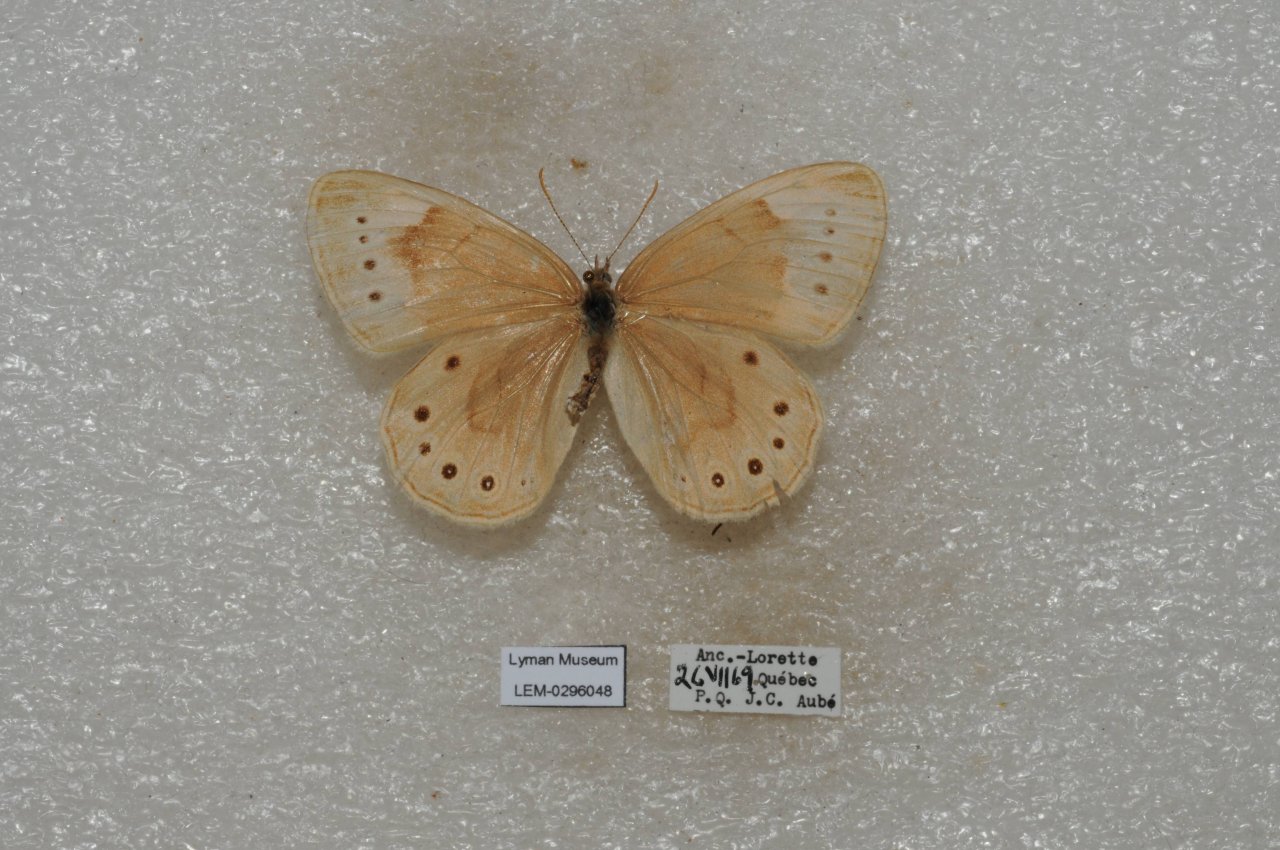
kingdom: Animalia
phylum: Arthropoda
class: Insecta
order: Lepidoptera
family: Nymphalidae
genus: Lethe
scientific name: Lethe eurydice
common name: Eyed Brown
